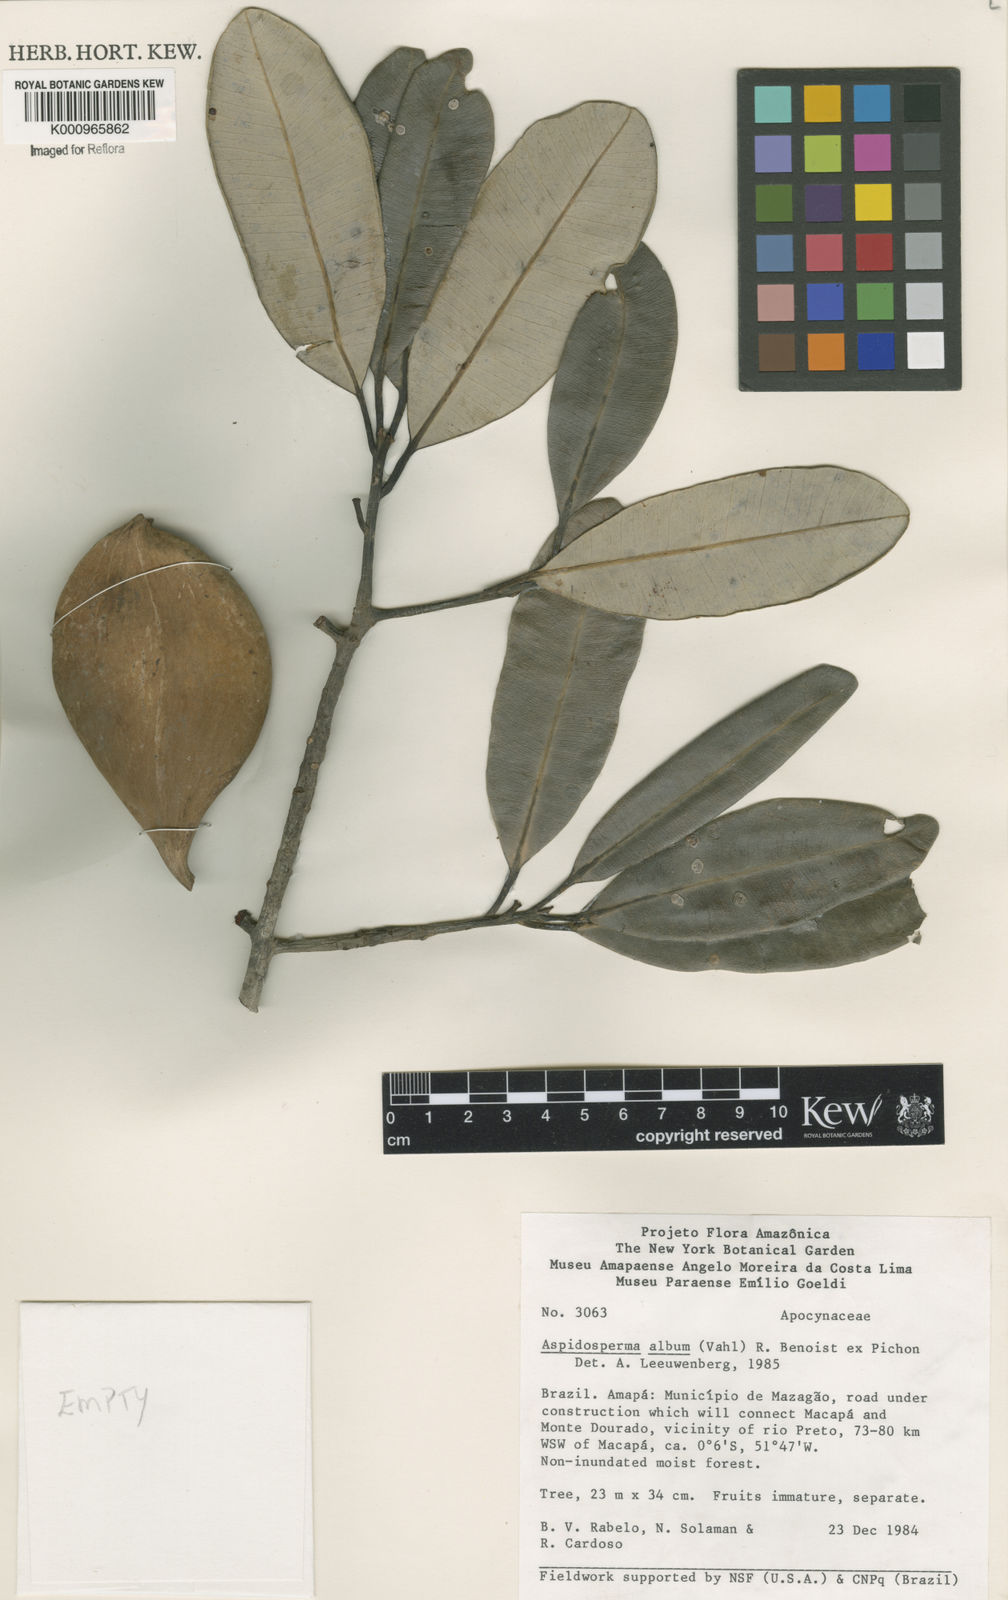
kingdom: Plantae
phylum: Tracheophyta
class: Magnoliopsida
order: Gentianales
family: Apocynaceae
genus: Aspidosperma
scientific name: Aspidosperma album
